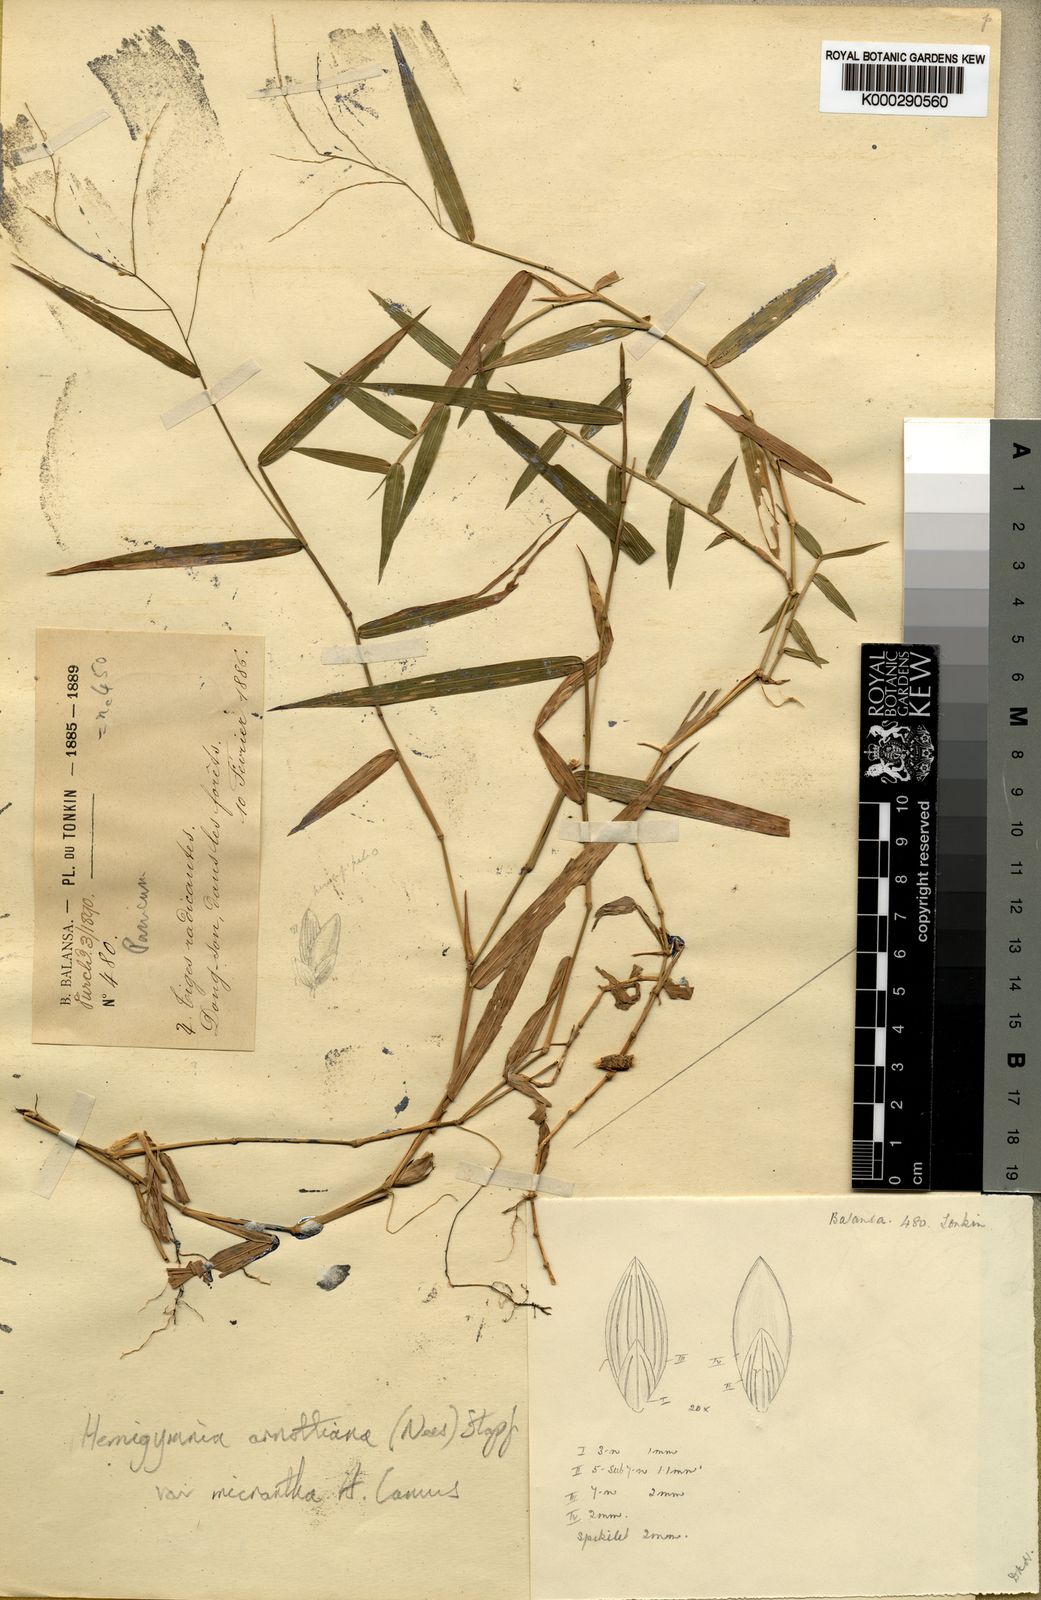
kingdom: Plantae
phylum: Tracheophyta
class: Liliopsida
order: Poales
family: Poaceae
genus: Ottochloa
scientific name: Ottochloa nodosa
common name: Slender-panic grass
